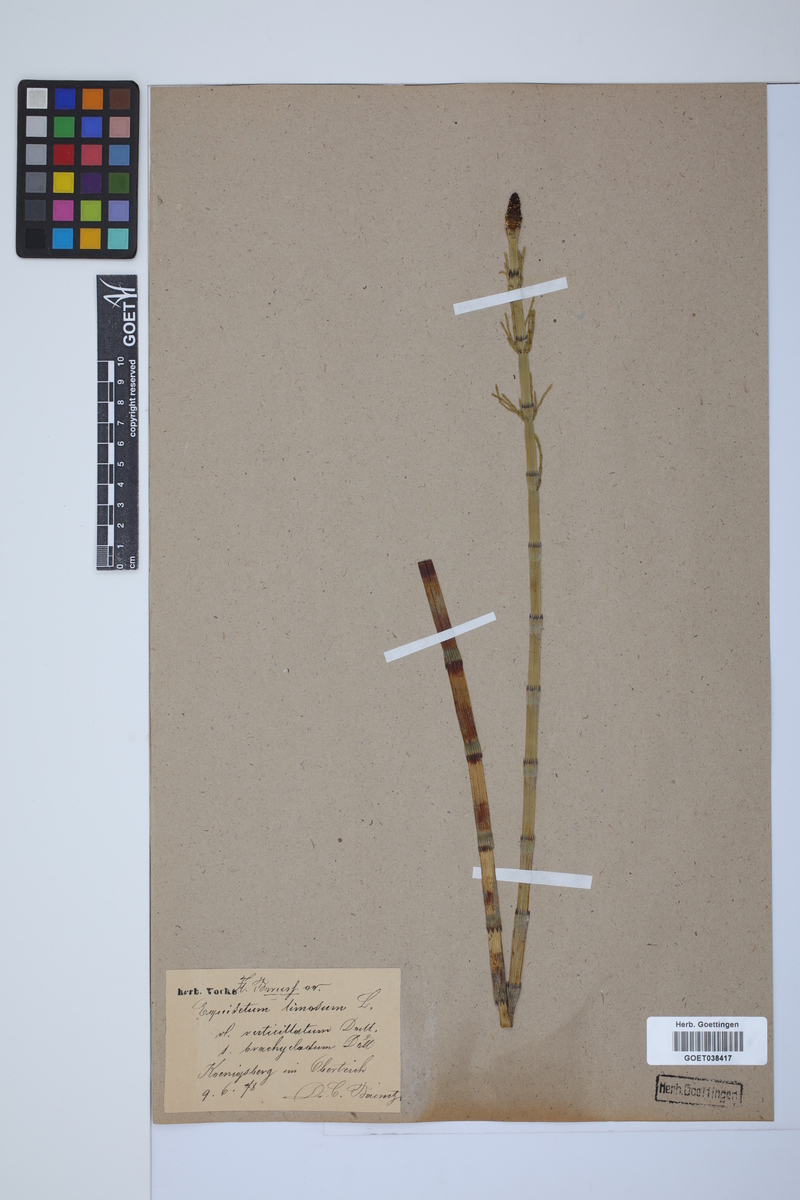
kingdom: Plantae
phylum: Tracheophyta
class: Polypodiopsida
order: Equisetales
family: Equisetaceae
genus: Equisetum
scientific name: Equisetum fluviatile
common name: Water horsetail
